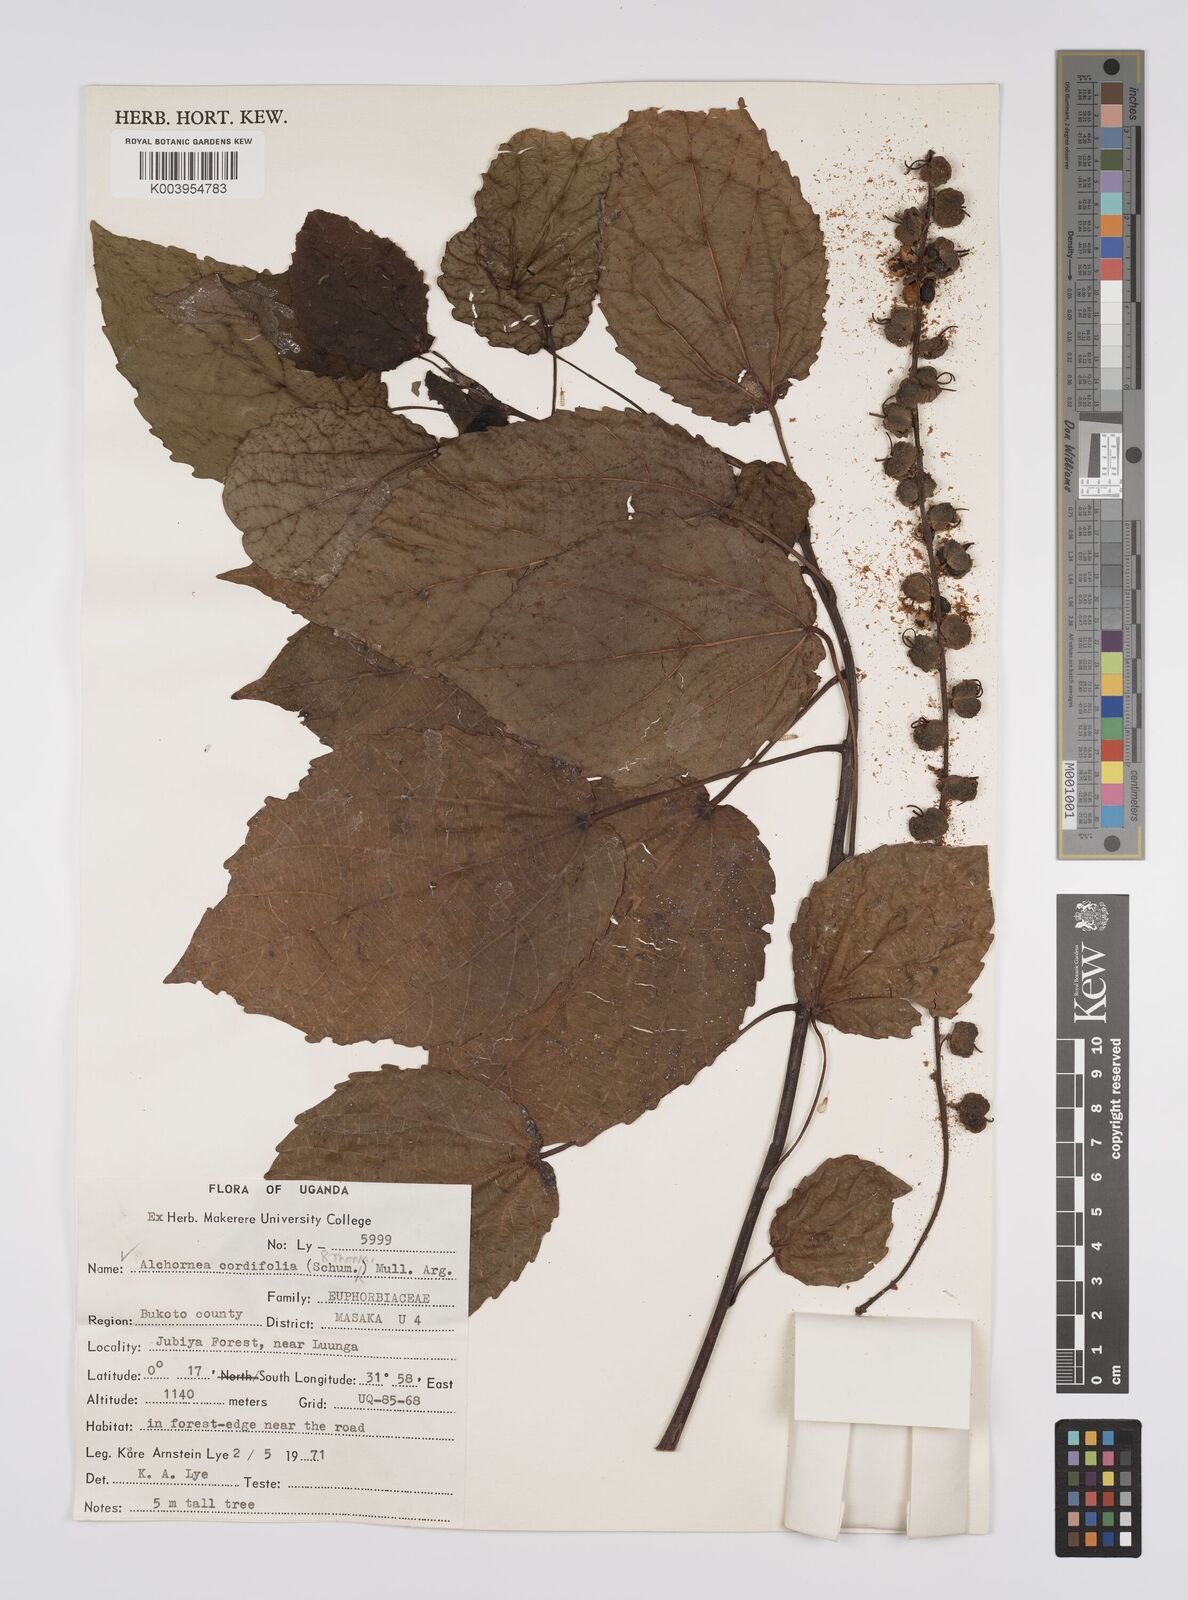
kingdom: Plantae
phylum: Tracheophyta
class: Magnoliopsida
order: Malpighiales
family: Euphorbiaceae
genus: Alchornea
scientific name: Alchornea cordifolia
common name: Christmasbush
